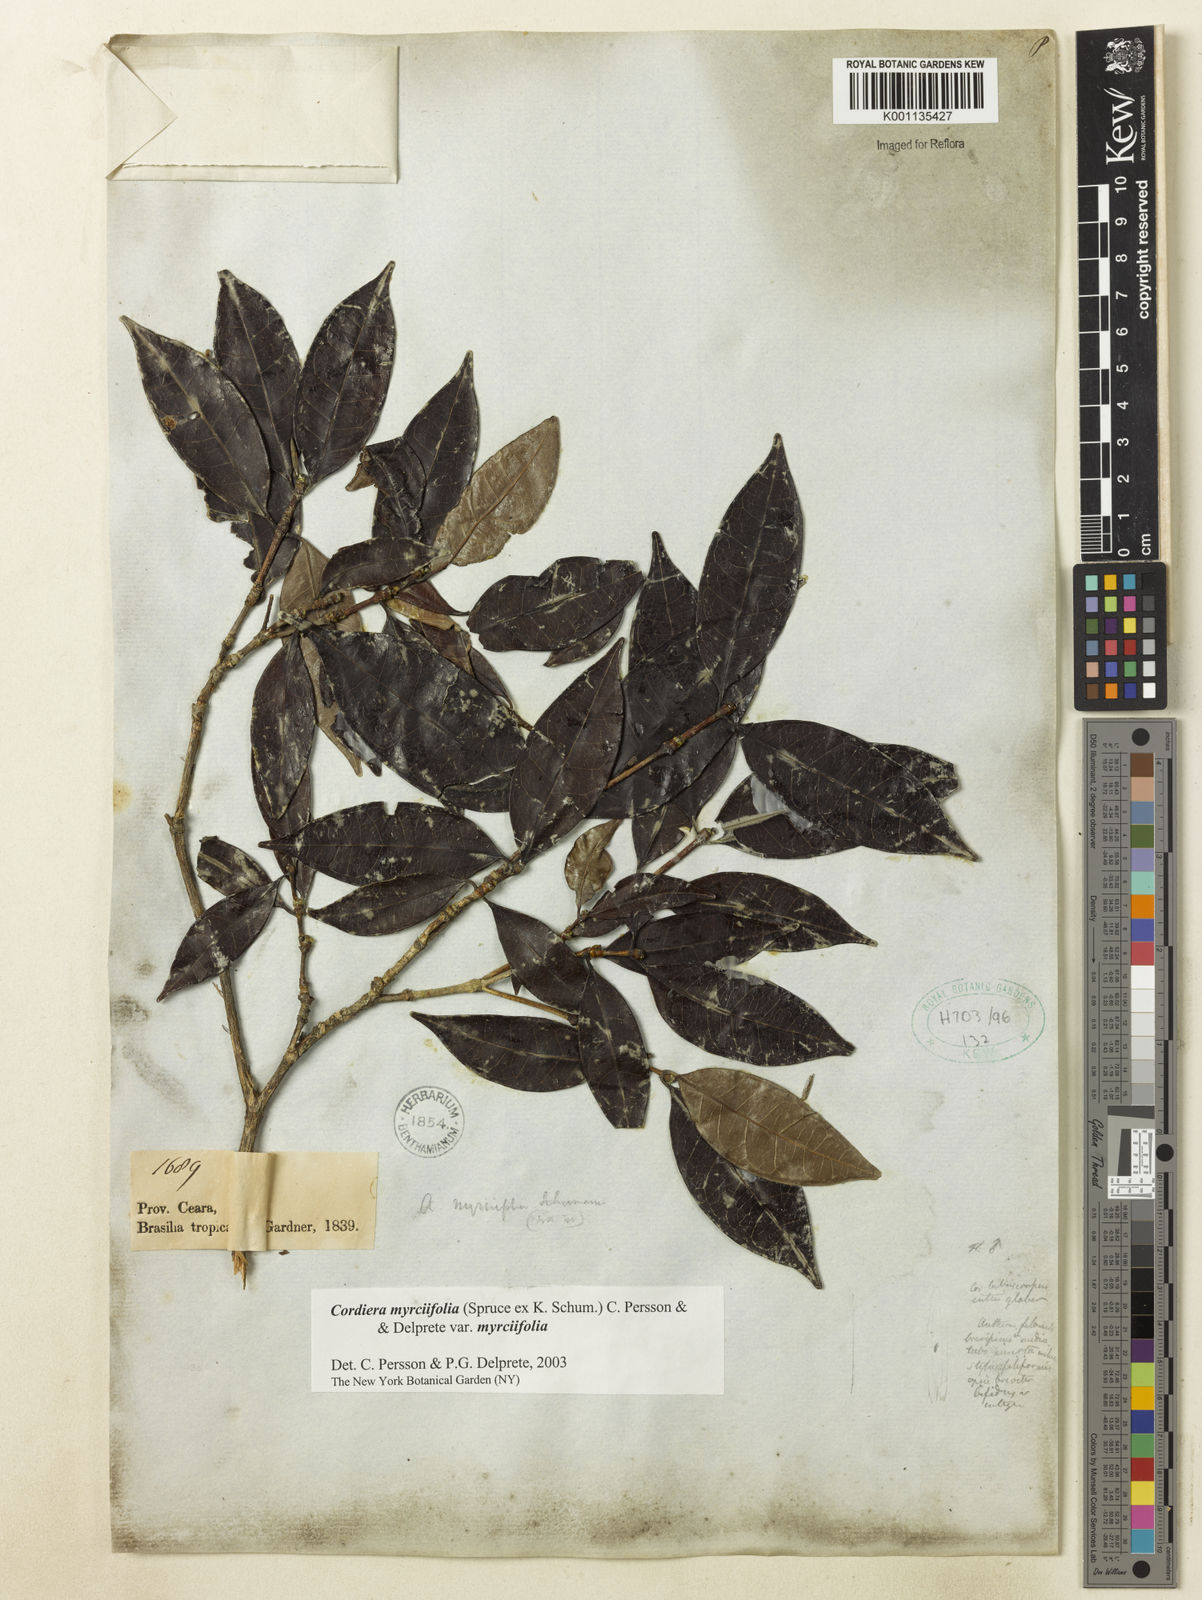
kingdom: Plantae
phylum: Tracheophyta
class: Magnoliopsida
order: Gentianales
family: Rubiaceae
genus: Cordiera
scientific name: Cordiera myrciifolia
